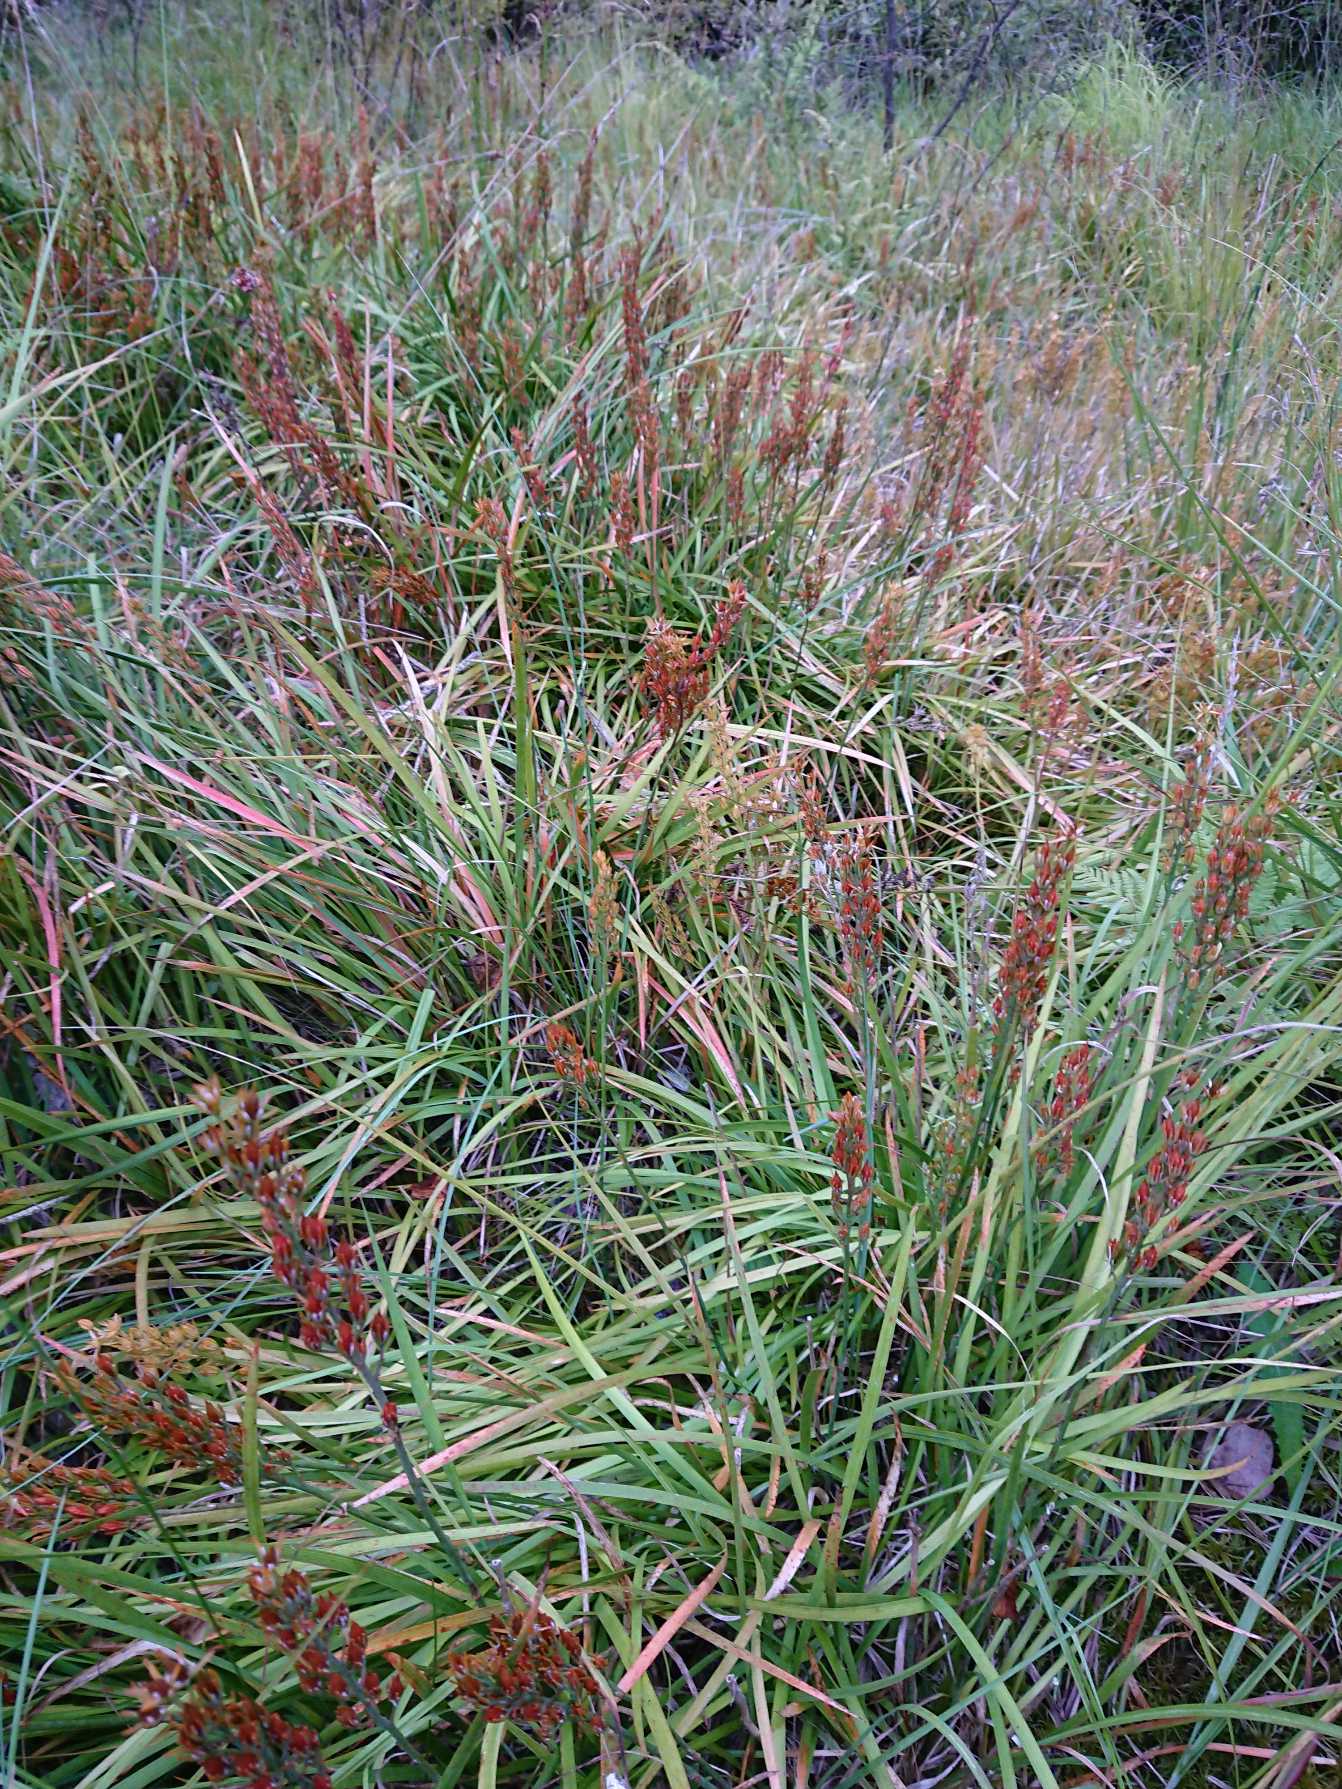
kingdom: Plantae
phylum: Tracheophyta
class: Liliopsida
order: Dioscoreales
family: Nartheciaceae
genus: Narthecium
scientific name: Narthecium ossifragum
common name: Benbræk
